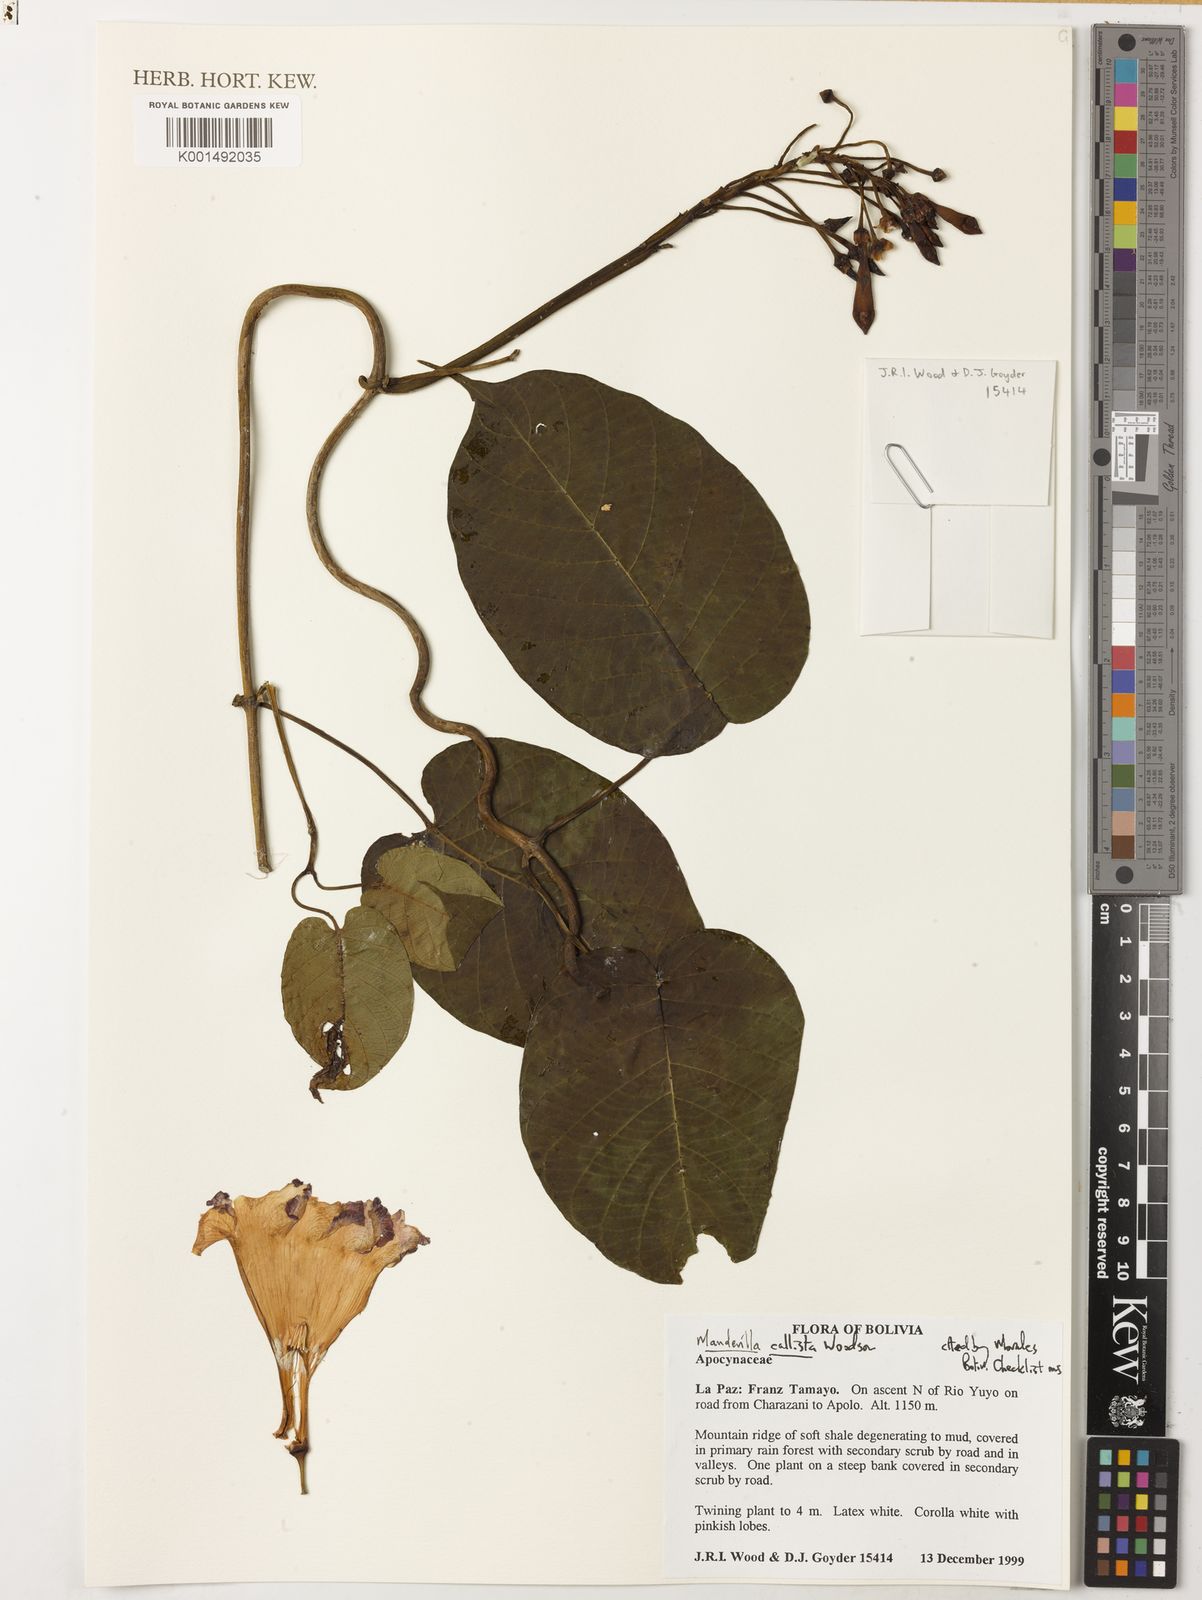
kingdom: Plantae
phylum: Tracheophyta
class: Magnoliopsida
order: Gentianales
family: Apocynaceae
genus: Mandevilla
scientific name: Mandevilla callista
